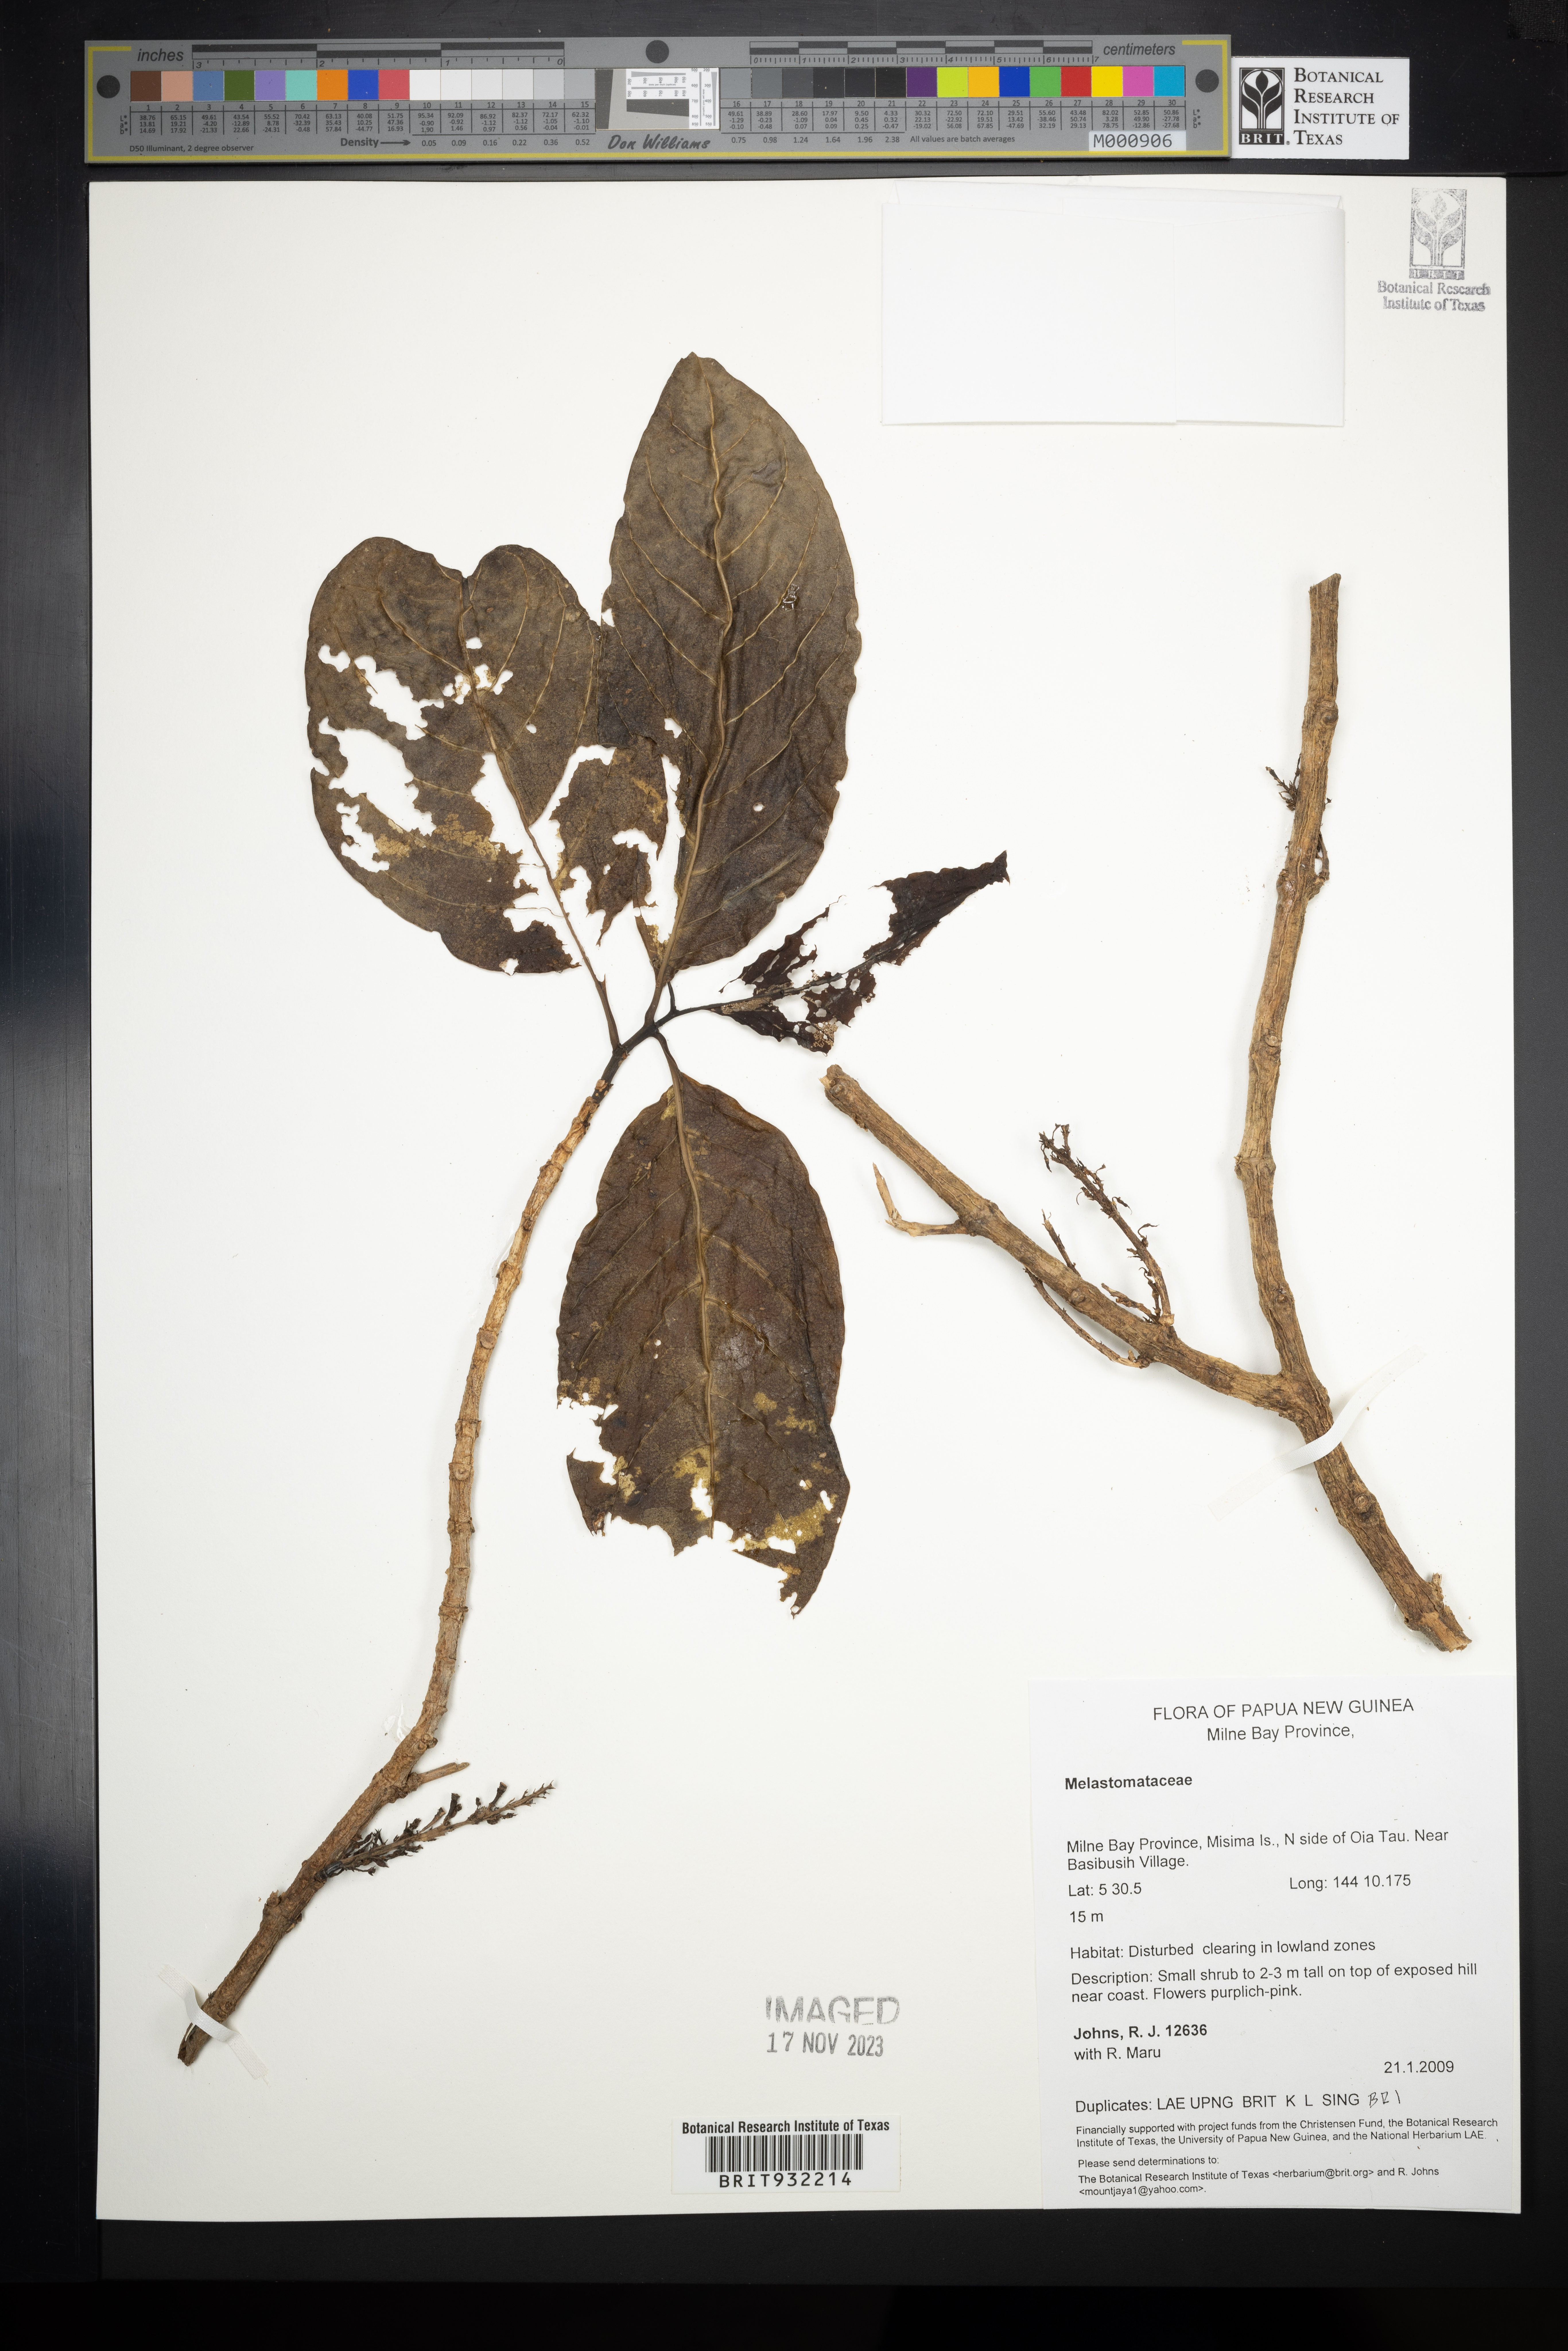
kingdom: Plantae
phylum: Tracheophyta
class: Magnoliopsida
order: Myrtales
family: Melastomataceae
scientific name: Melastomataceae
